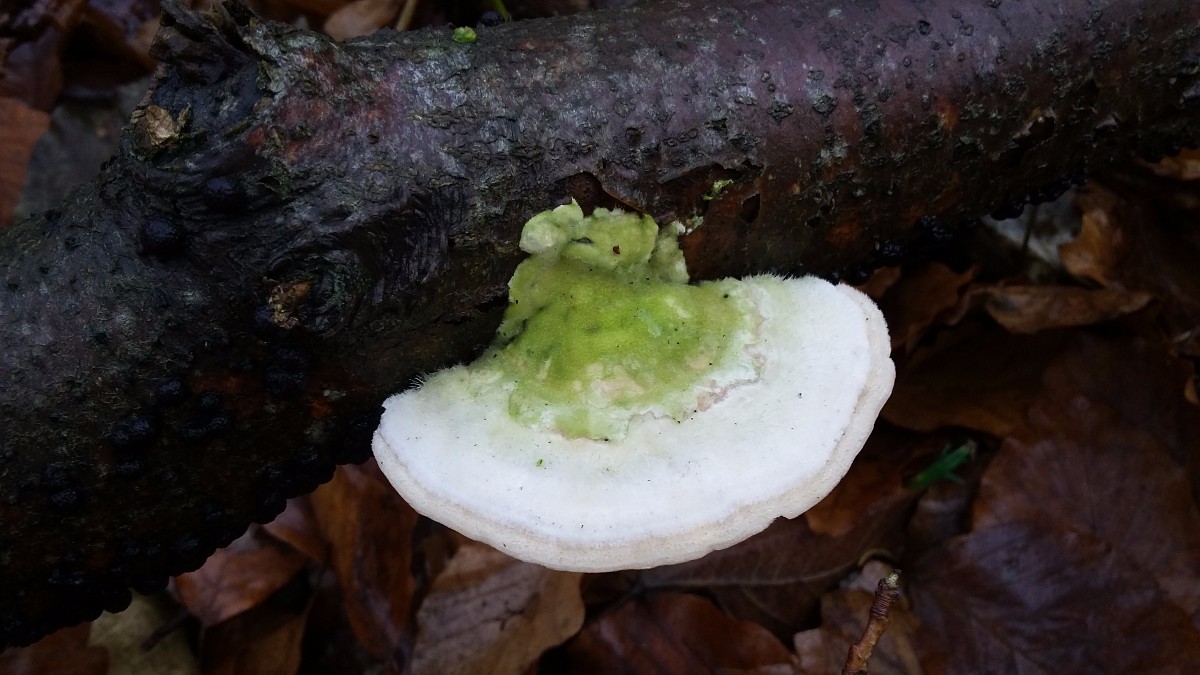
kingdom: Fungi
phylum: Basidiomycota
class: Agaricomycetes
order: Polyporales
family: Polyporaceae
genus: Trametes
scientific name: Trametes gibbosa
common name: puklet læderporesvamp
